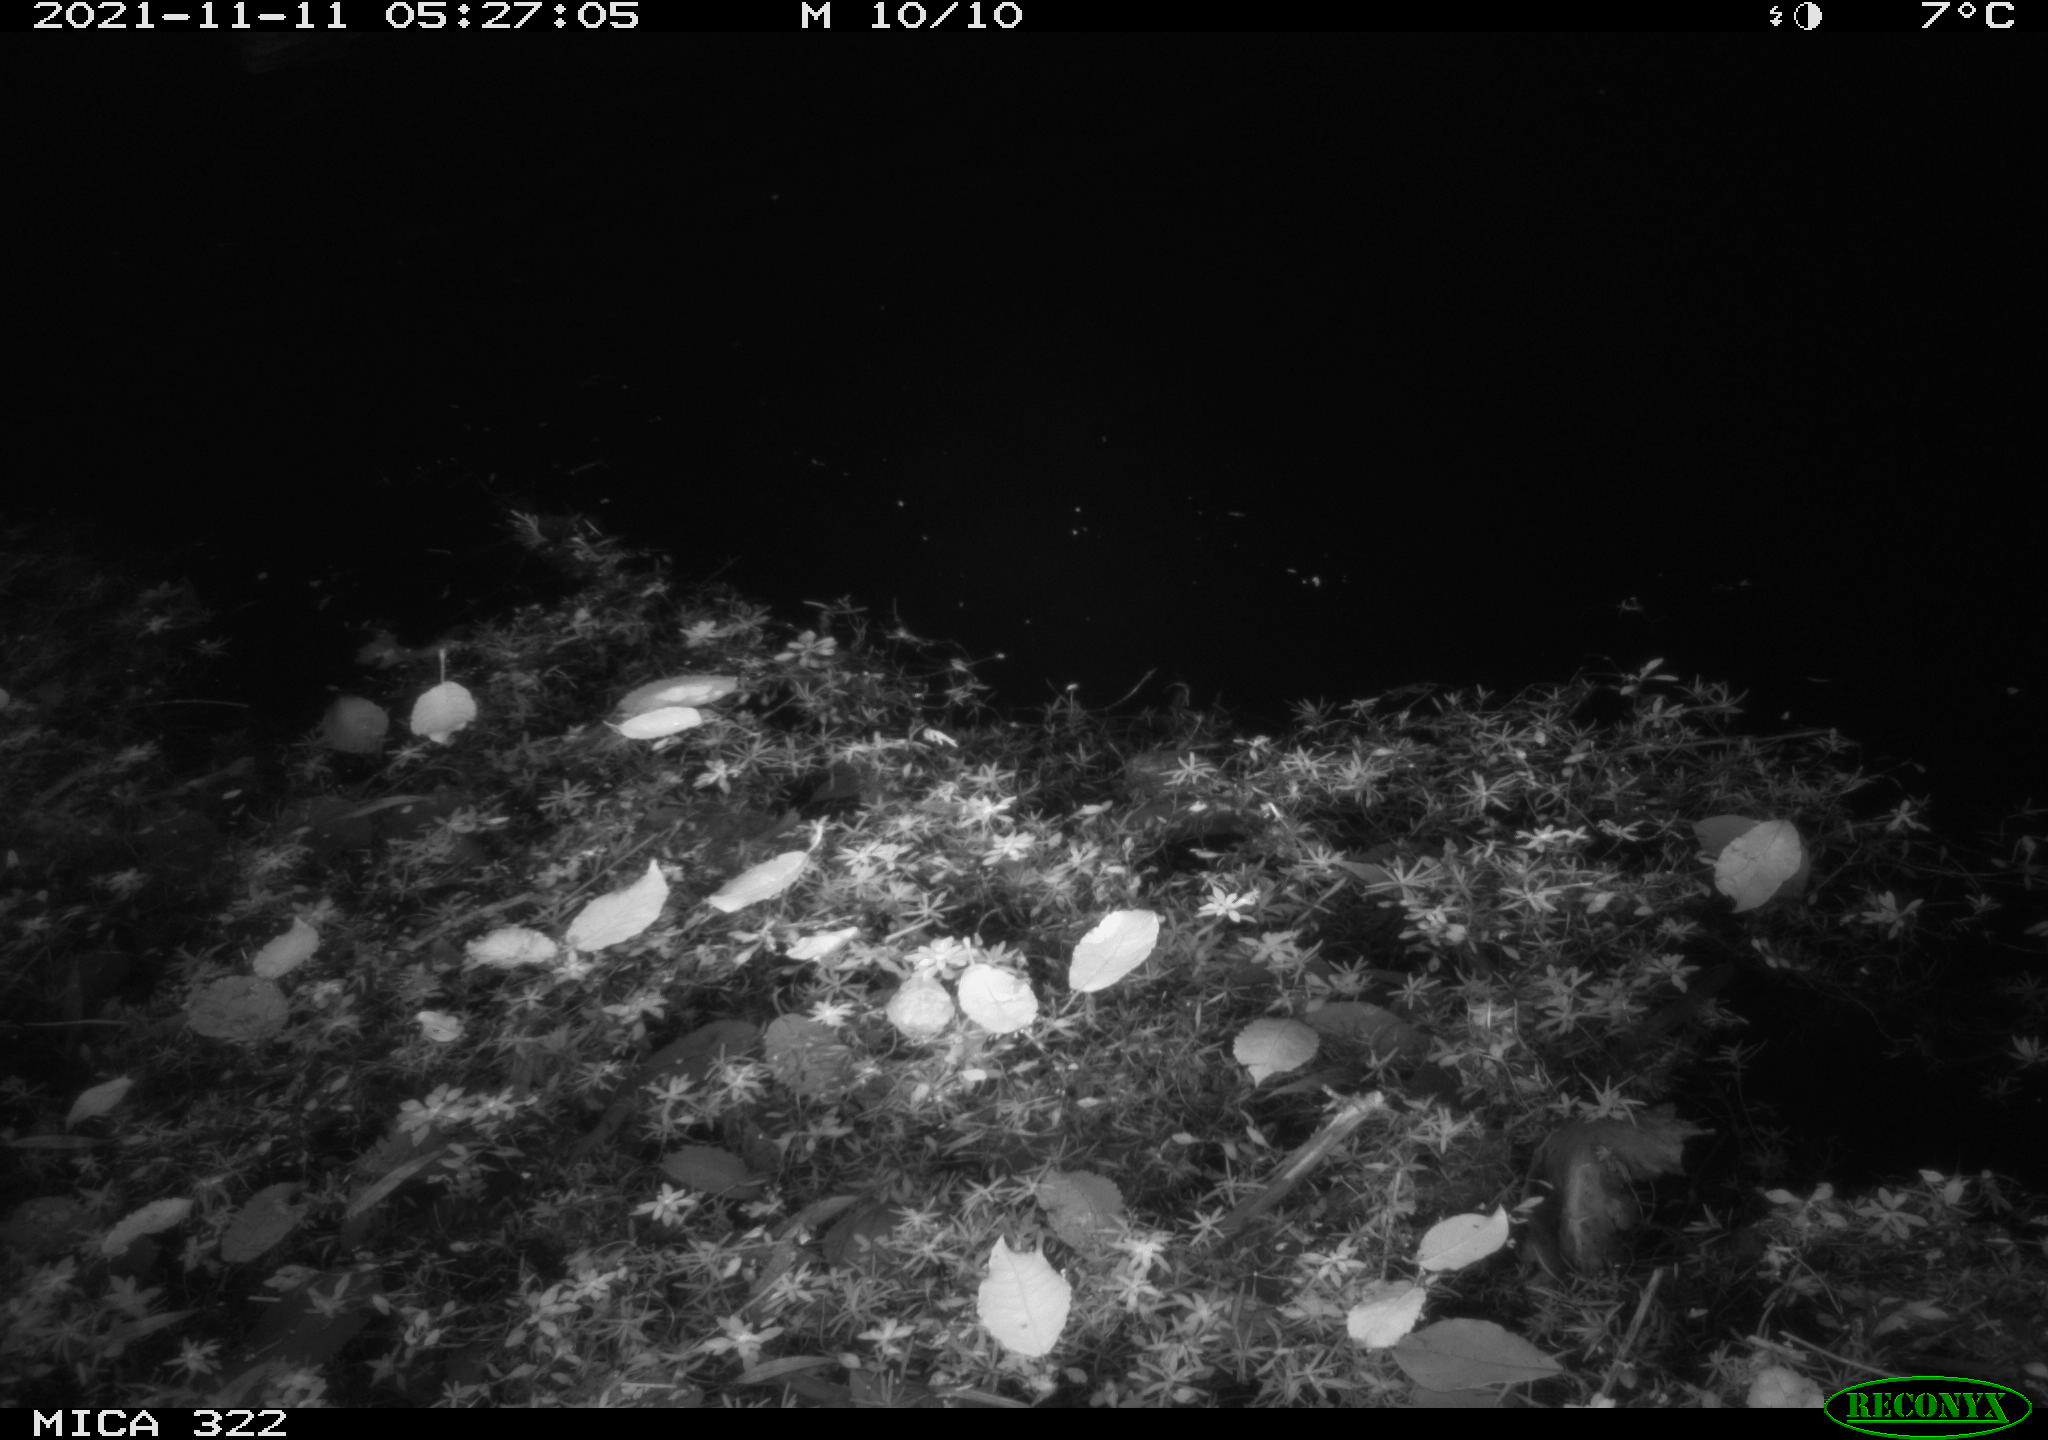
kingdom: Animalia
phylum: Chordata
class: Aves
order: Anseriformes
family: Anatidae
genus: Anas
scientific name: Anas platyrhynchos
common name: Mallard
